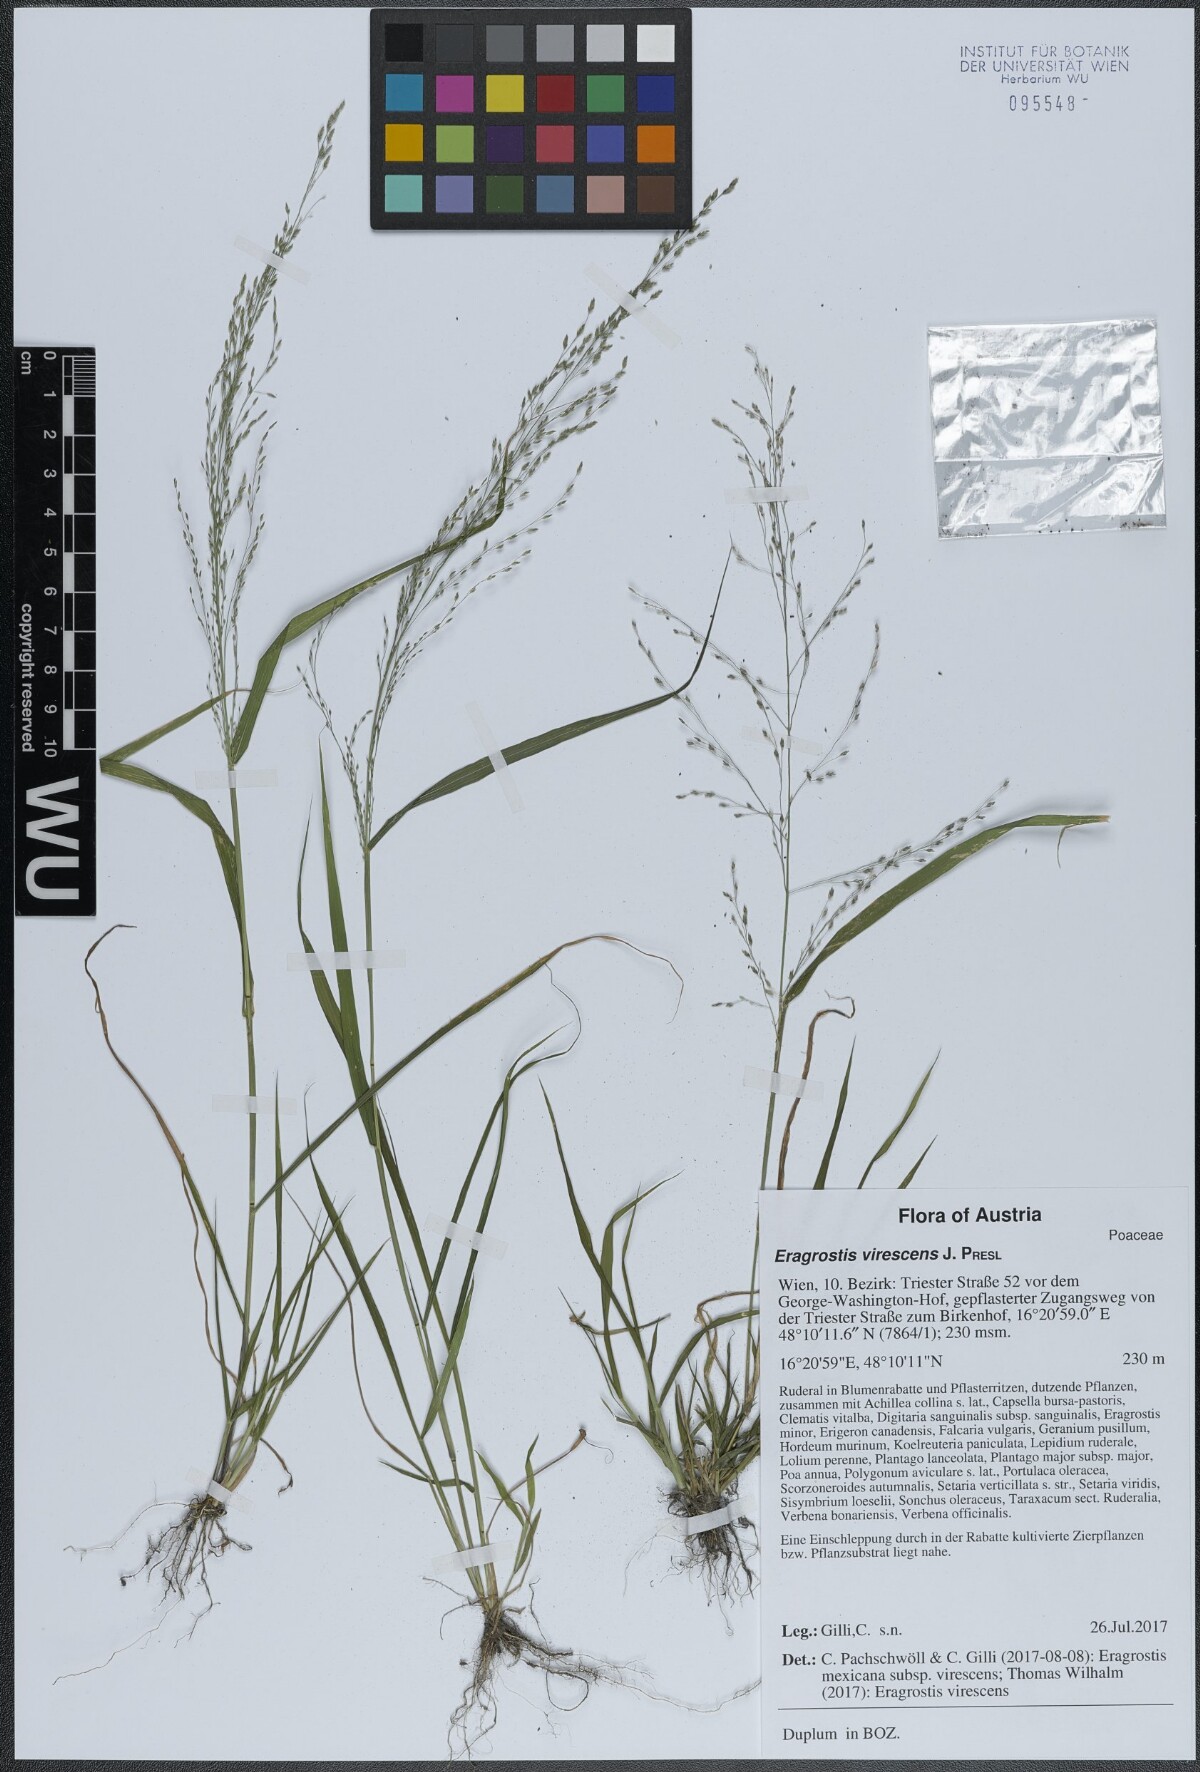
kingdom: Plantae
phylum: Tracheophyta
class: Liliopsida
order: Poales
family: Poaceae
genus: Eragrostis
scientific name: Eragrostis virescens
